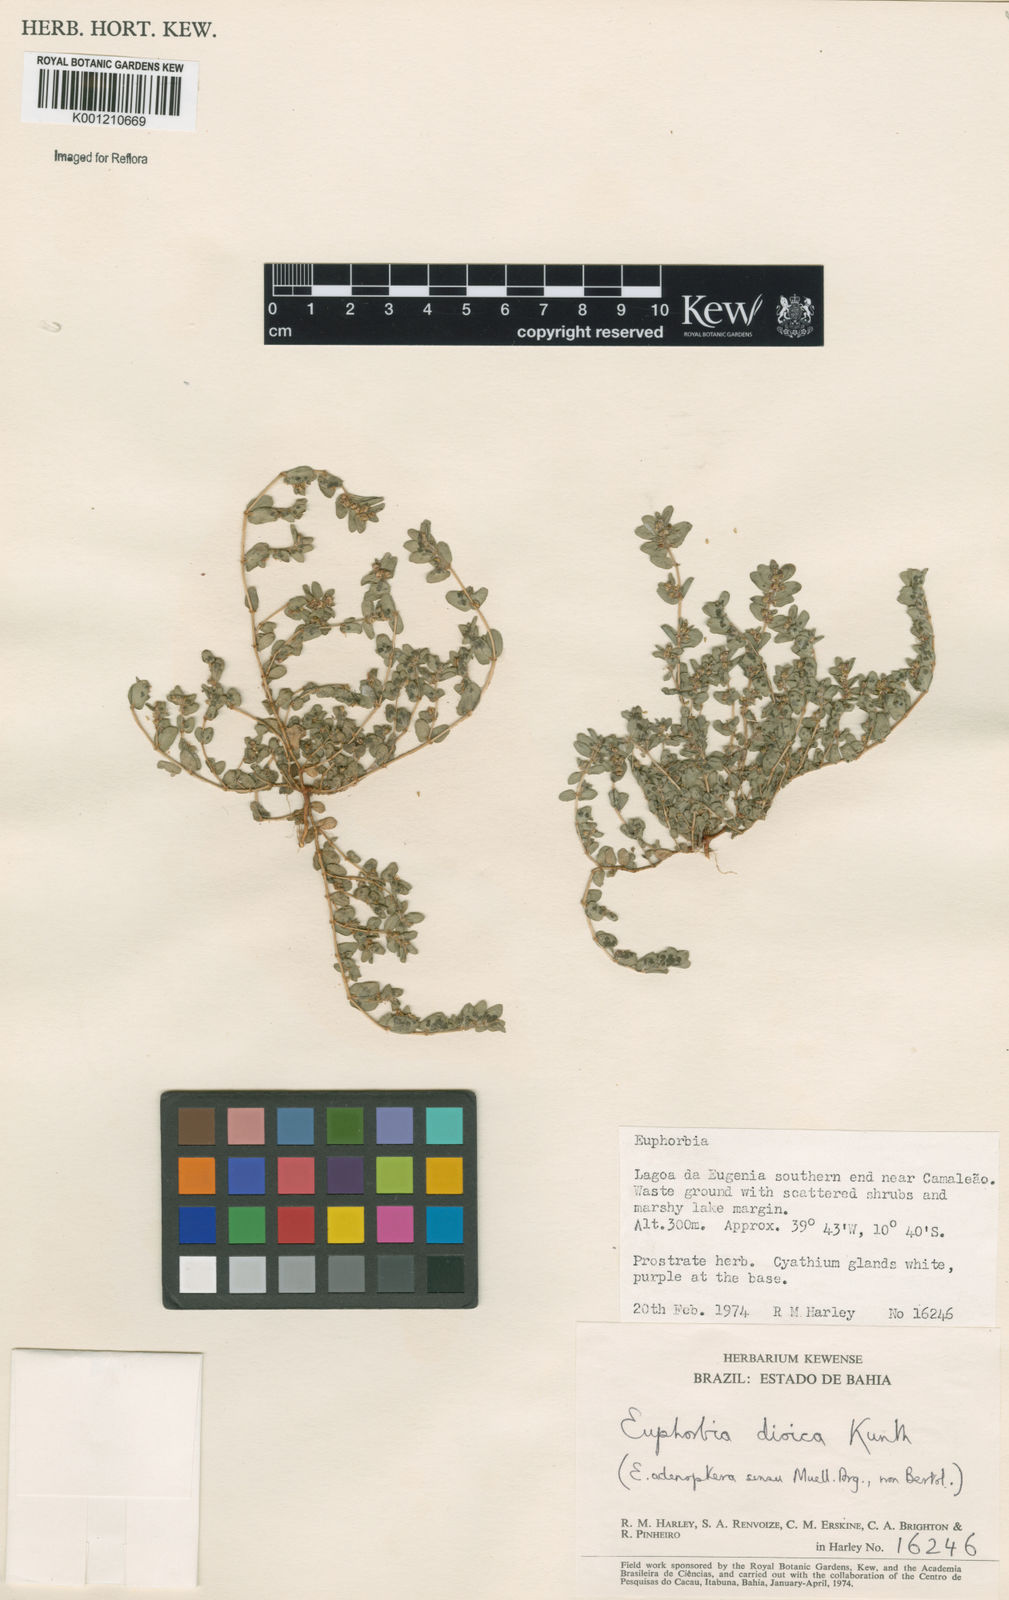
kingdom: Plantae
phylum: Tracheophyta
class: Magnoliopsida
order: Malpighiales
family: Euphorbiaceae
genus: Euphorbia
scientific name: Euphorbia
